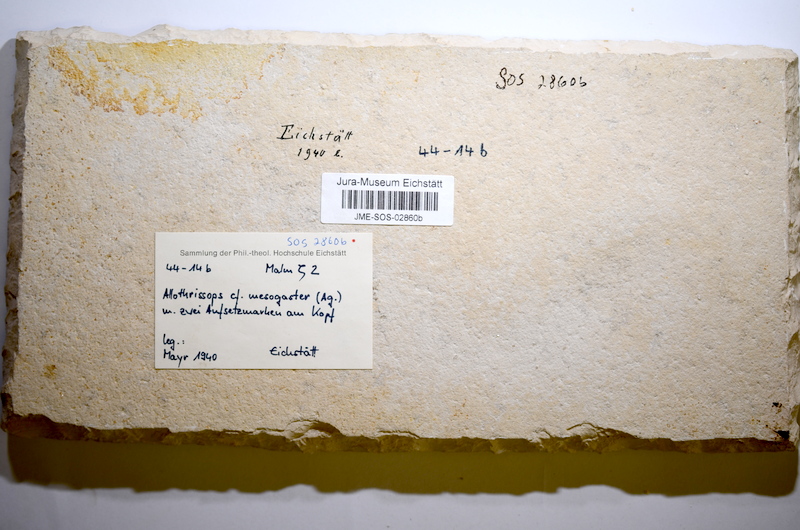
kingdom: Animalia
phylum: Chordata
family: Allothrissopidae
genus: Allothrissops
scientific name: Allothrissops mesogaster
